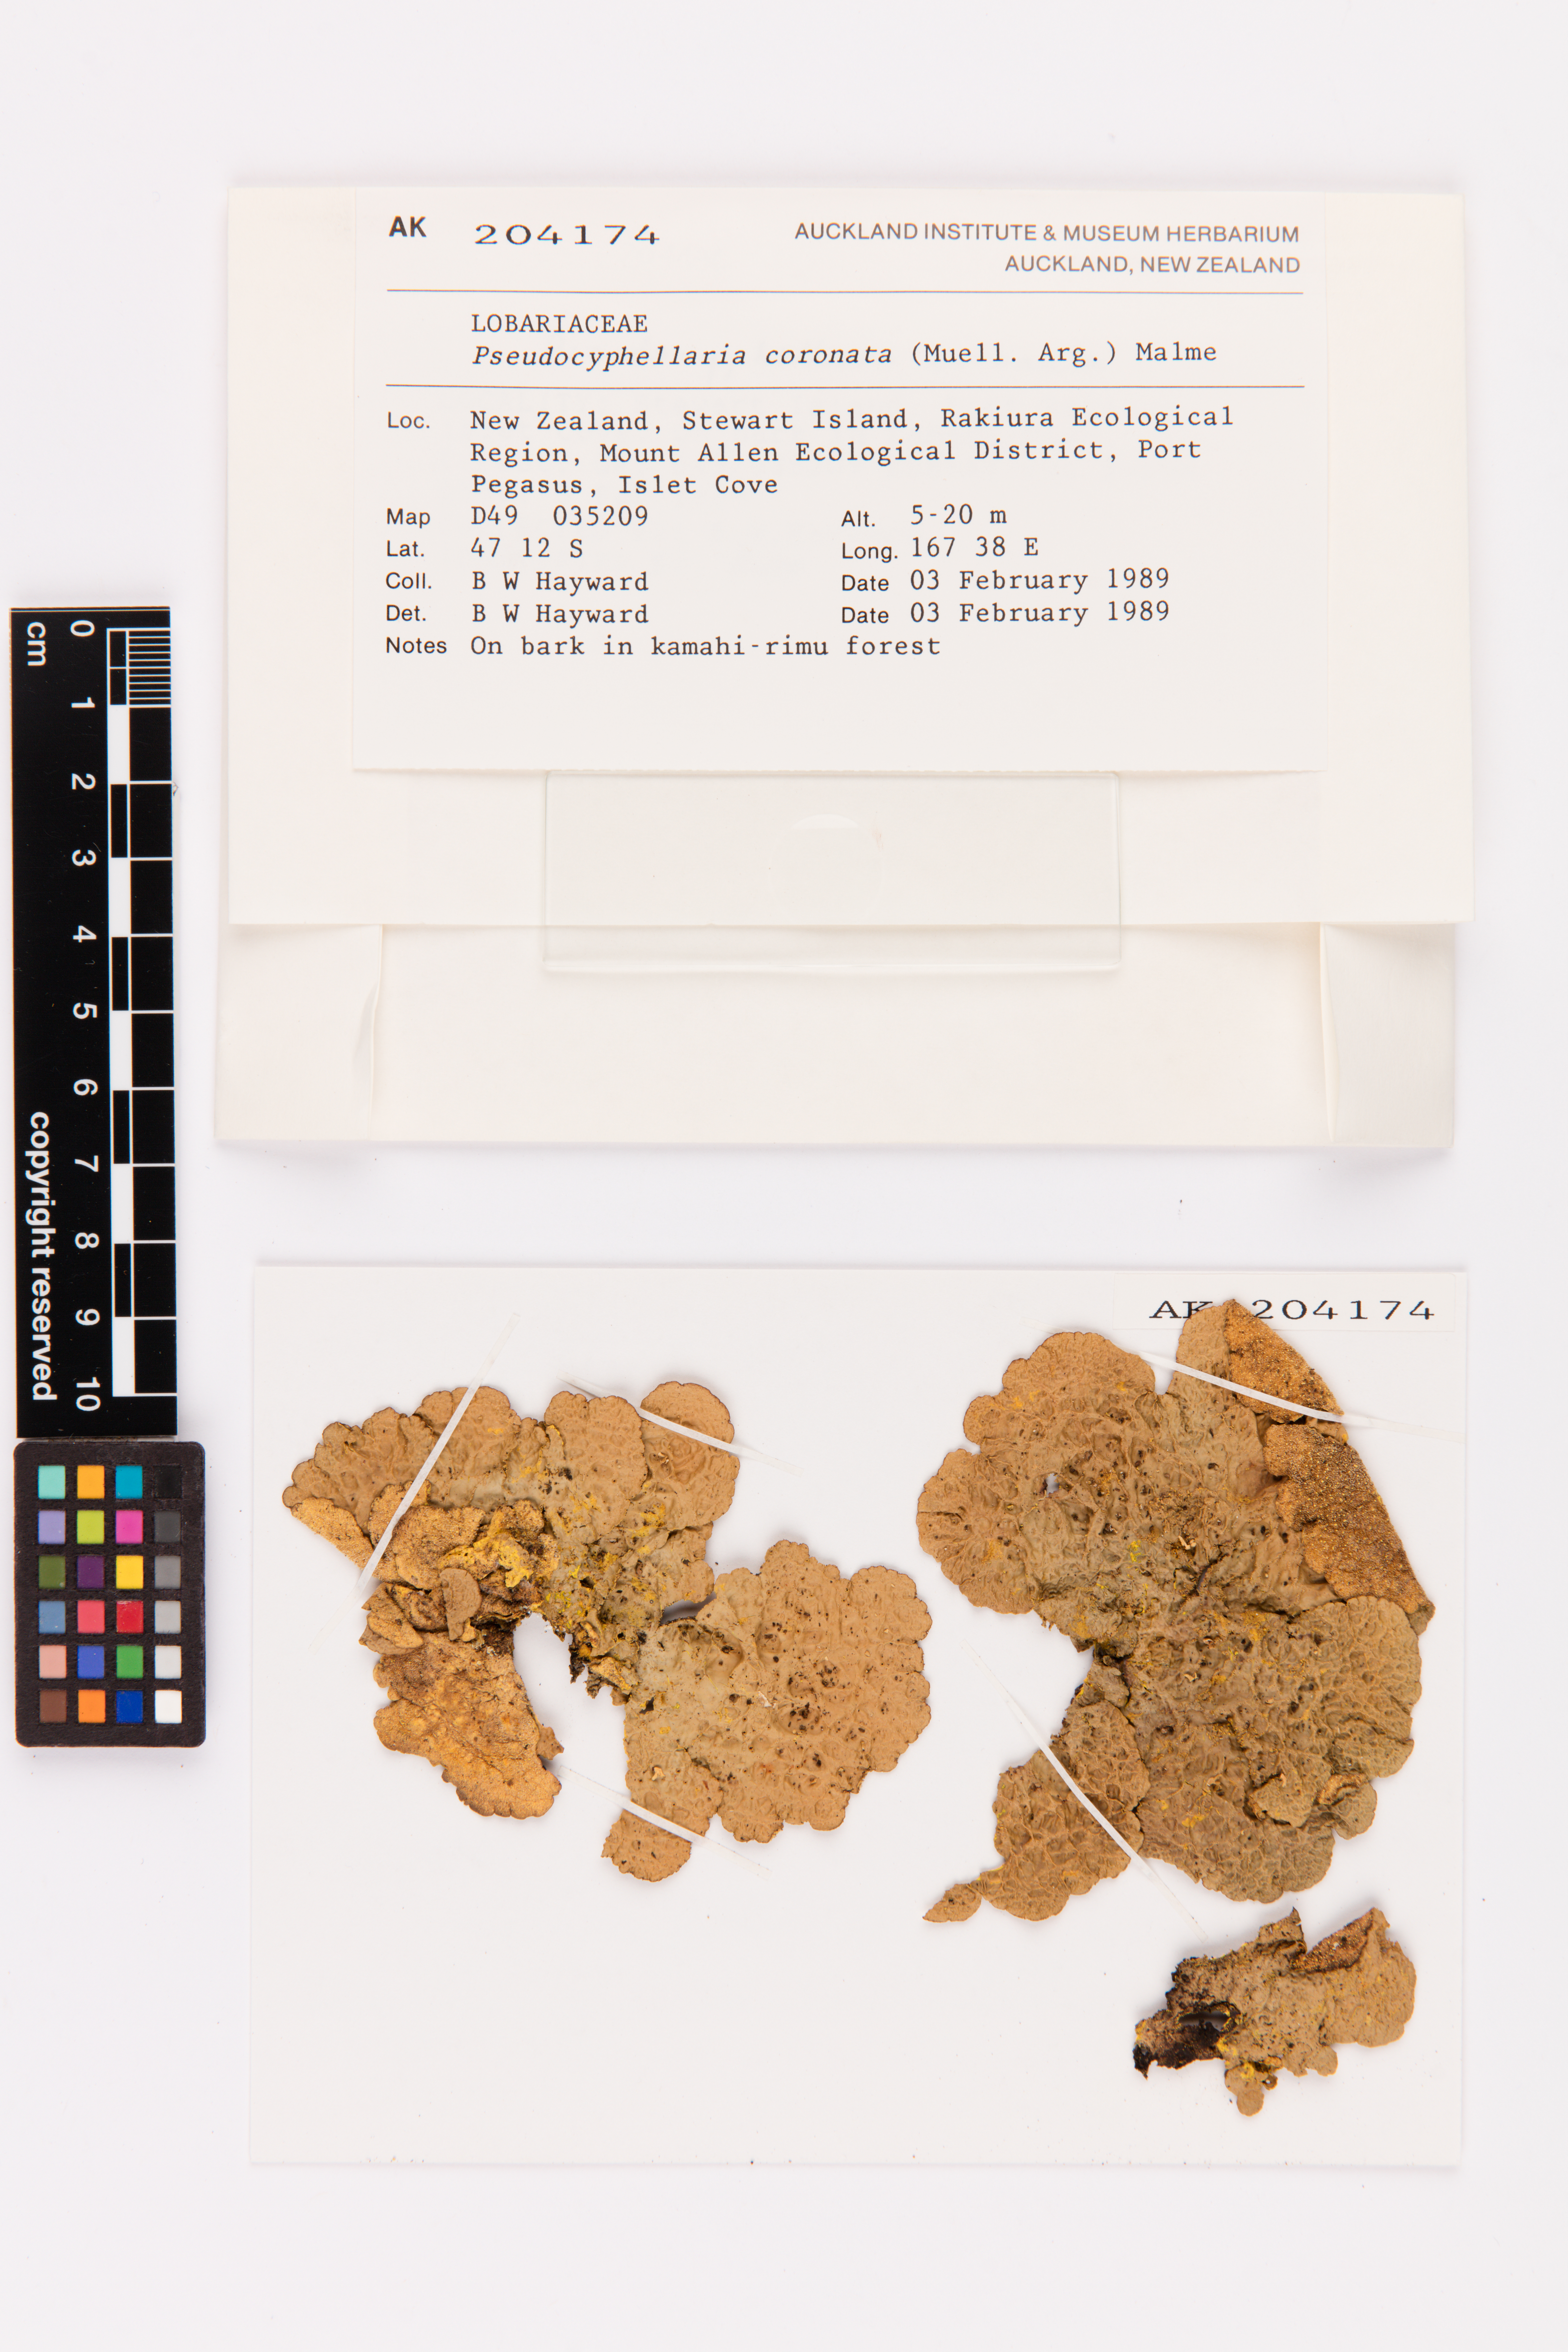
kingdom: Fungi
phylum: Ascomycota
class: Lecanoromycetes
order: Peltigerales
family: Lobariaceae
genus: Yarrumia
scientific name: Yarrumia coronata
